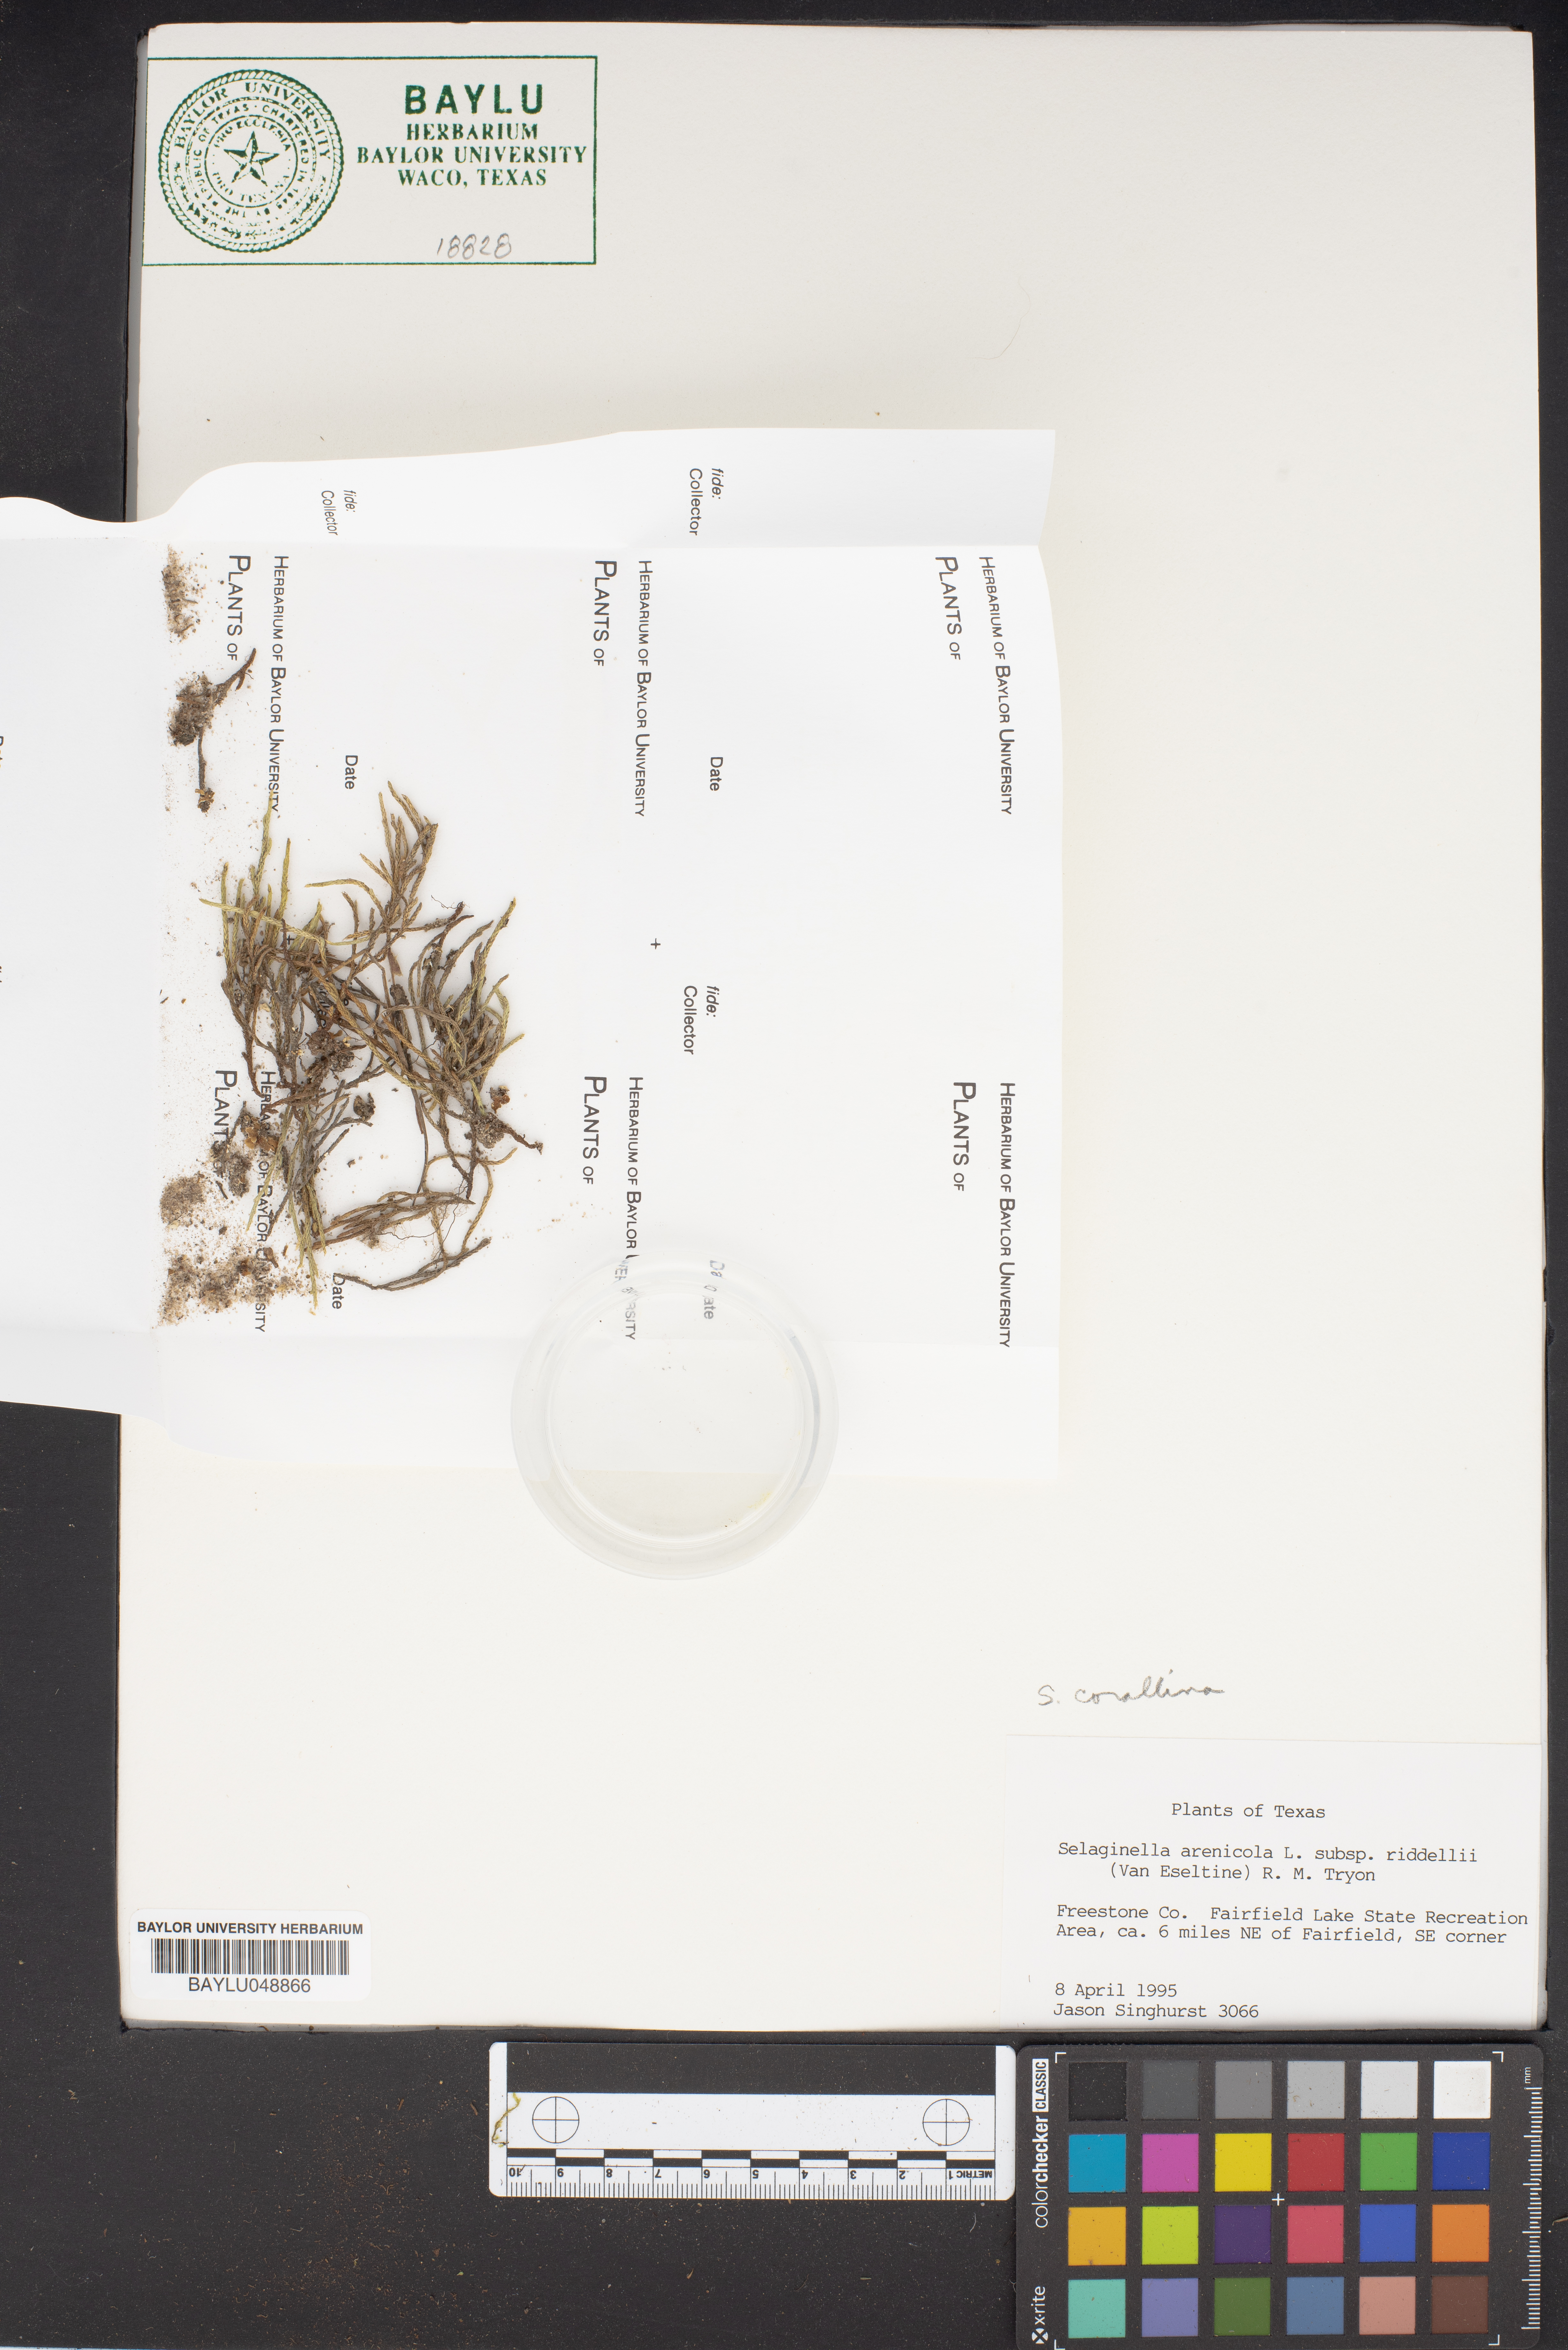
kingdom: Plantae
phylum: Tracheophyta
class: Lycopodiopsida
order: Selaginellales
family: Selaginellaceae
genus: Selaginella
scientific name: Selaginella corallina
